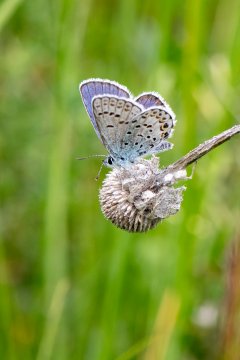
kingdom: Animalia
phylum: Arthropoda
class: Insecta
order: Lepidoptera
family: Lycaenidae
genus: Lycaeides
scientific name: Lycaeides idas
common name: Northern Blue
